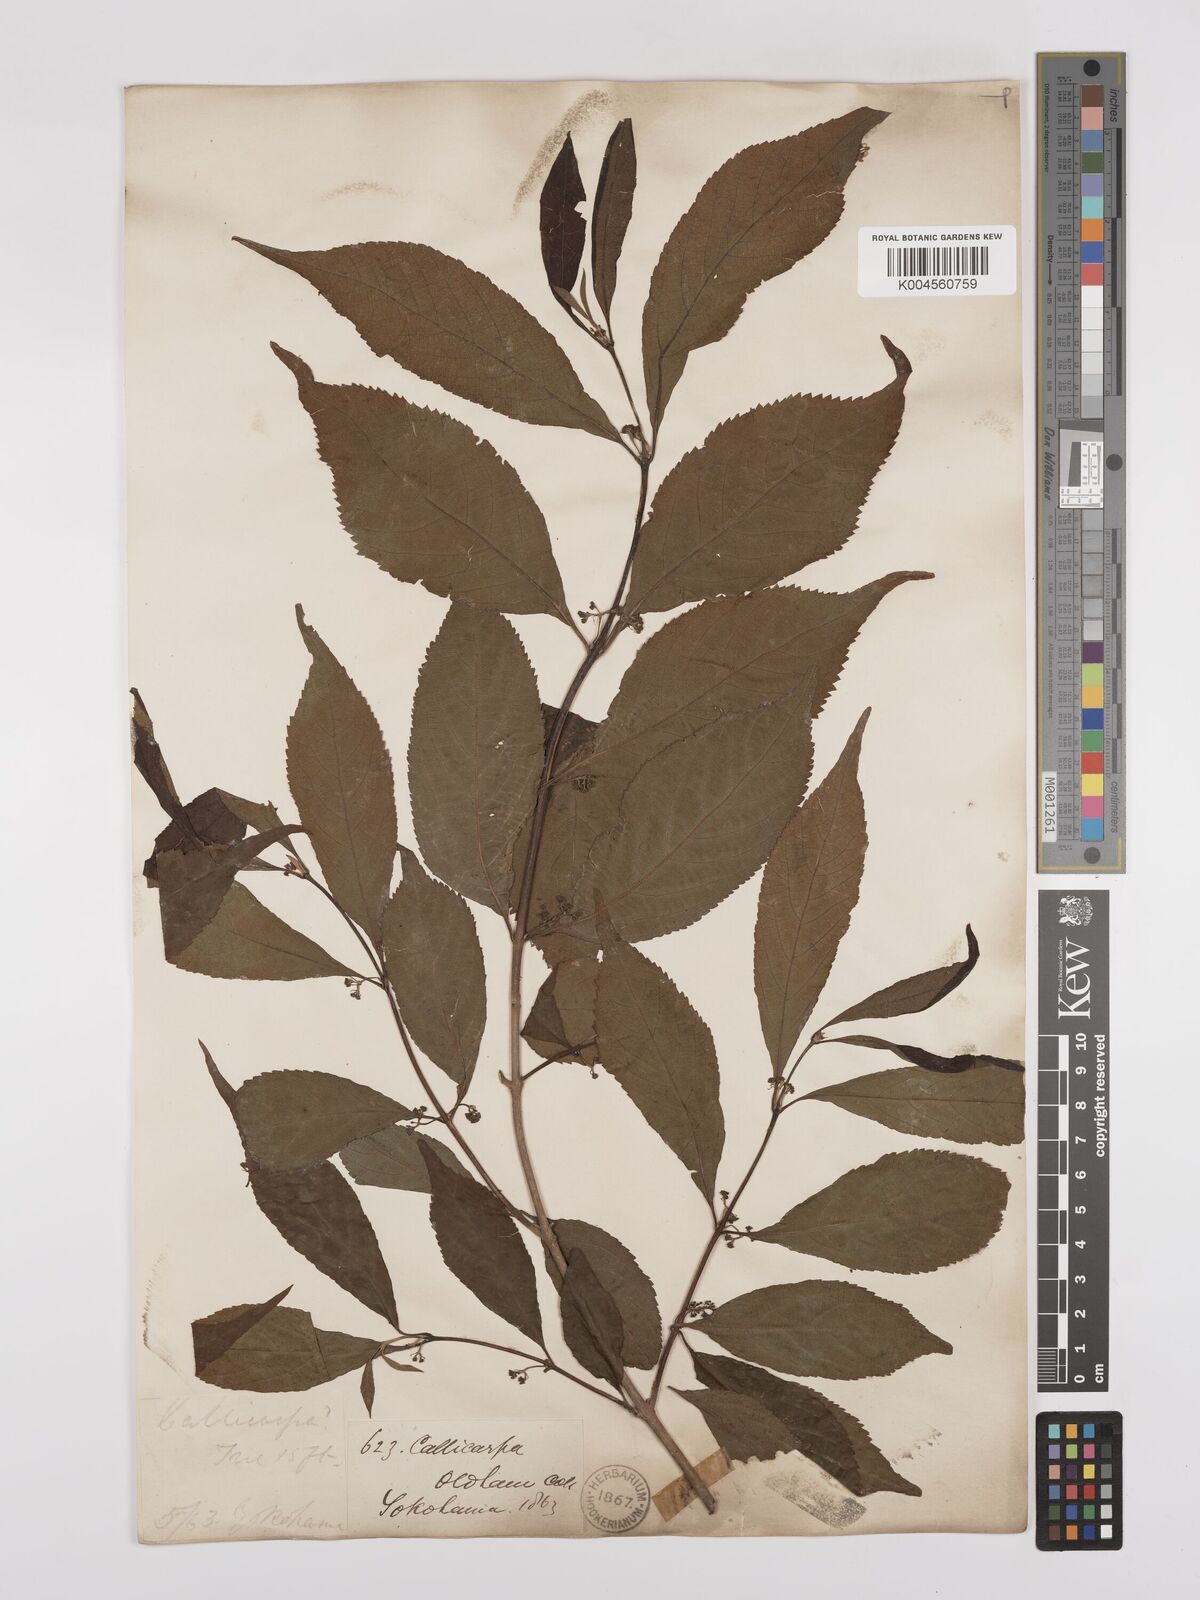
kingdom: Plantae
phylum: Tracheophyta
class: Magnoliopsida
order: Lamiales
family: Lamiaceae
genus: Callicarpa
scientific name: Callicarpa japonica
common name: Japanese beauty-berry
